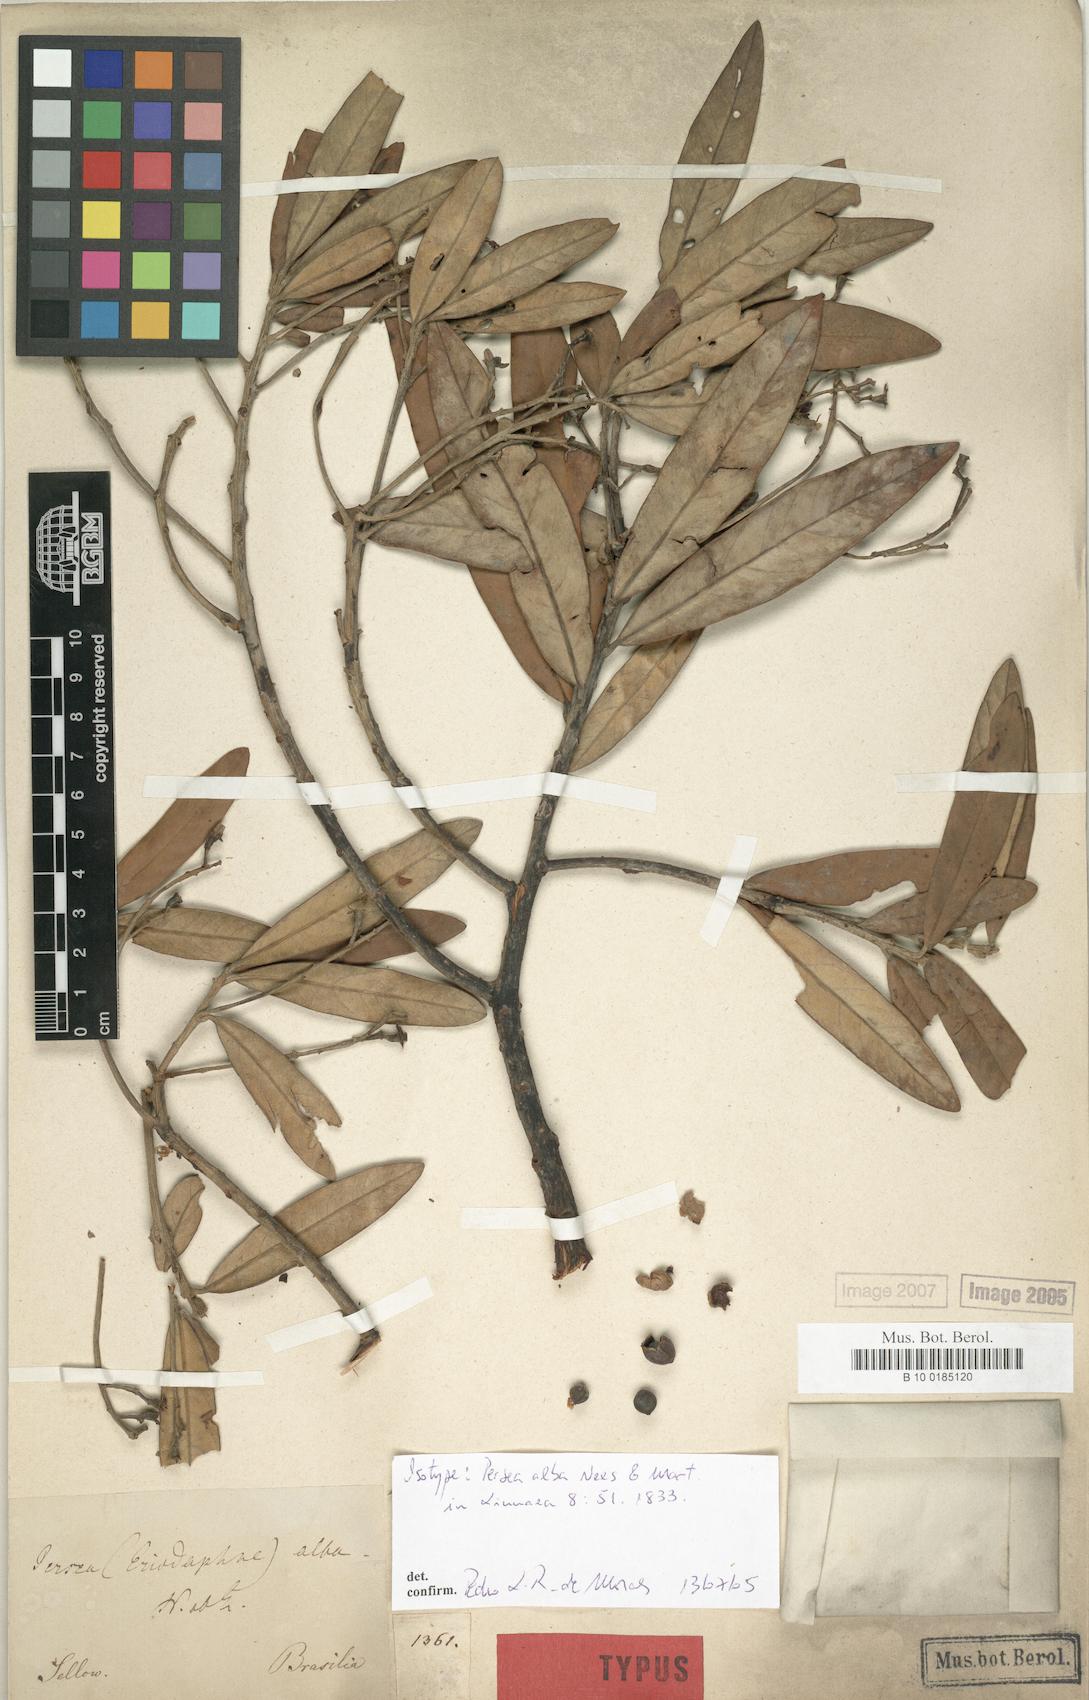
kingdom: Plantae
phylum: Tracheophyta
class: Magnoliopsida
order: Laurales
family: Lauraceae
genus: Persea
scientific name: Persea alba
